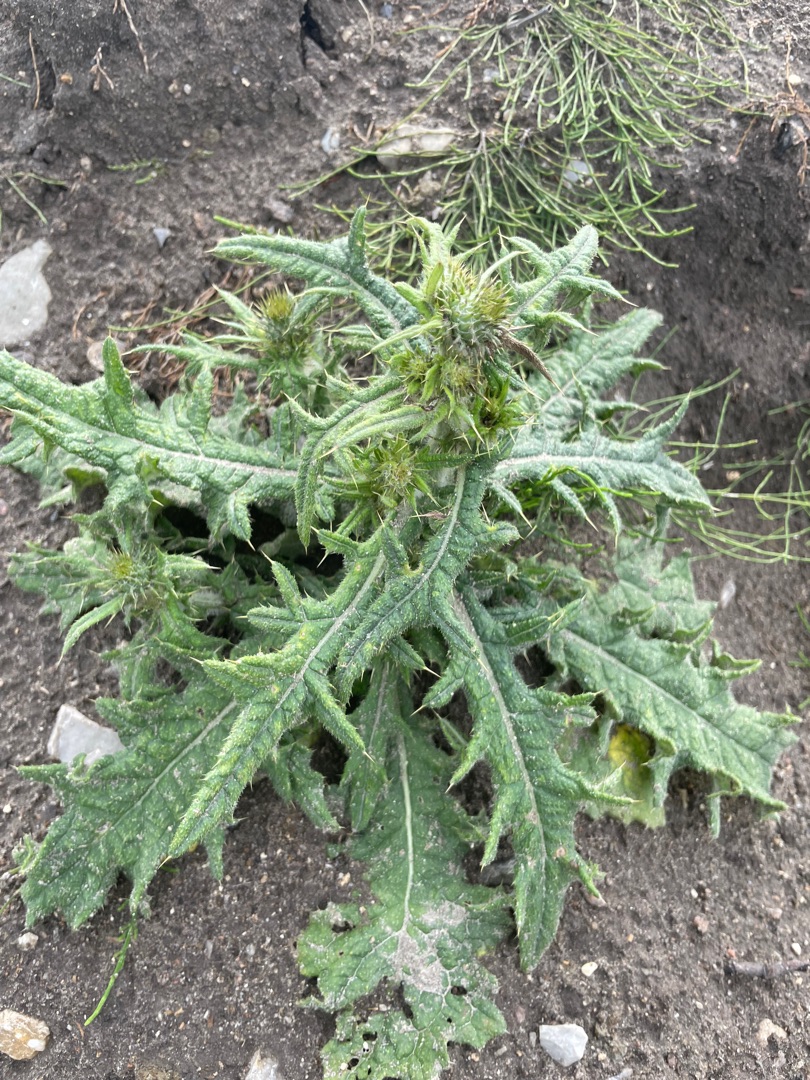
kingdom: Plantae
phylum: Tracheophyta
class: Magnoliopsida
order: Asterales
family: Asteraceae
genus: Cirsium
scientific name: Cirsium vulgare
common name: Horse-tidsel
